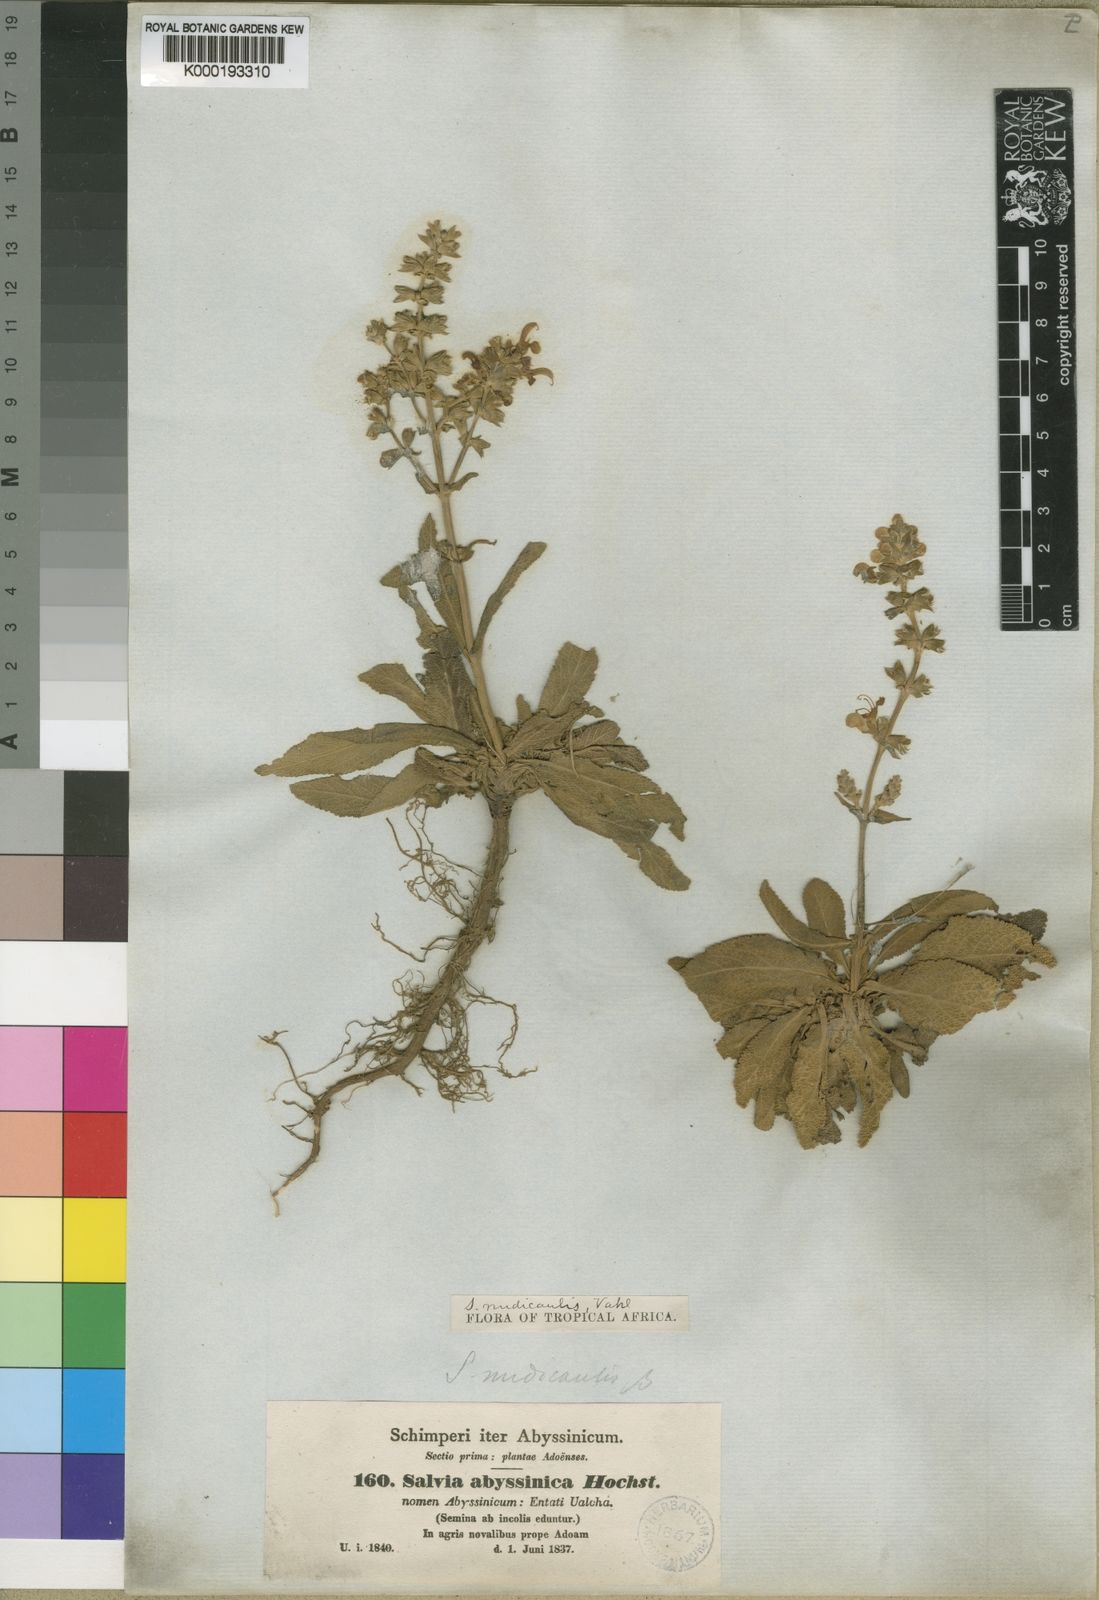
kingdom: Plantae
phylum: Tracheophyta
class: Magnoliopsida
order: Lamiales
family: Lamiaceae
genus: Salvia
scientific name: Salvia merjamie
